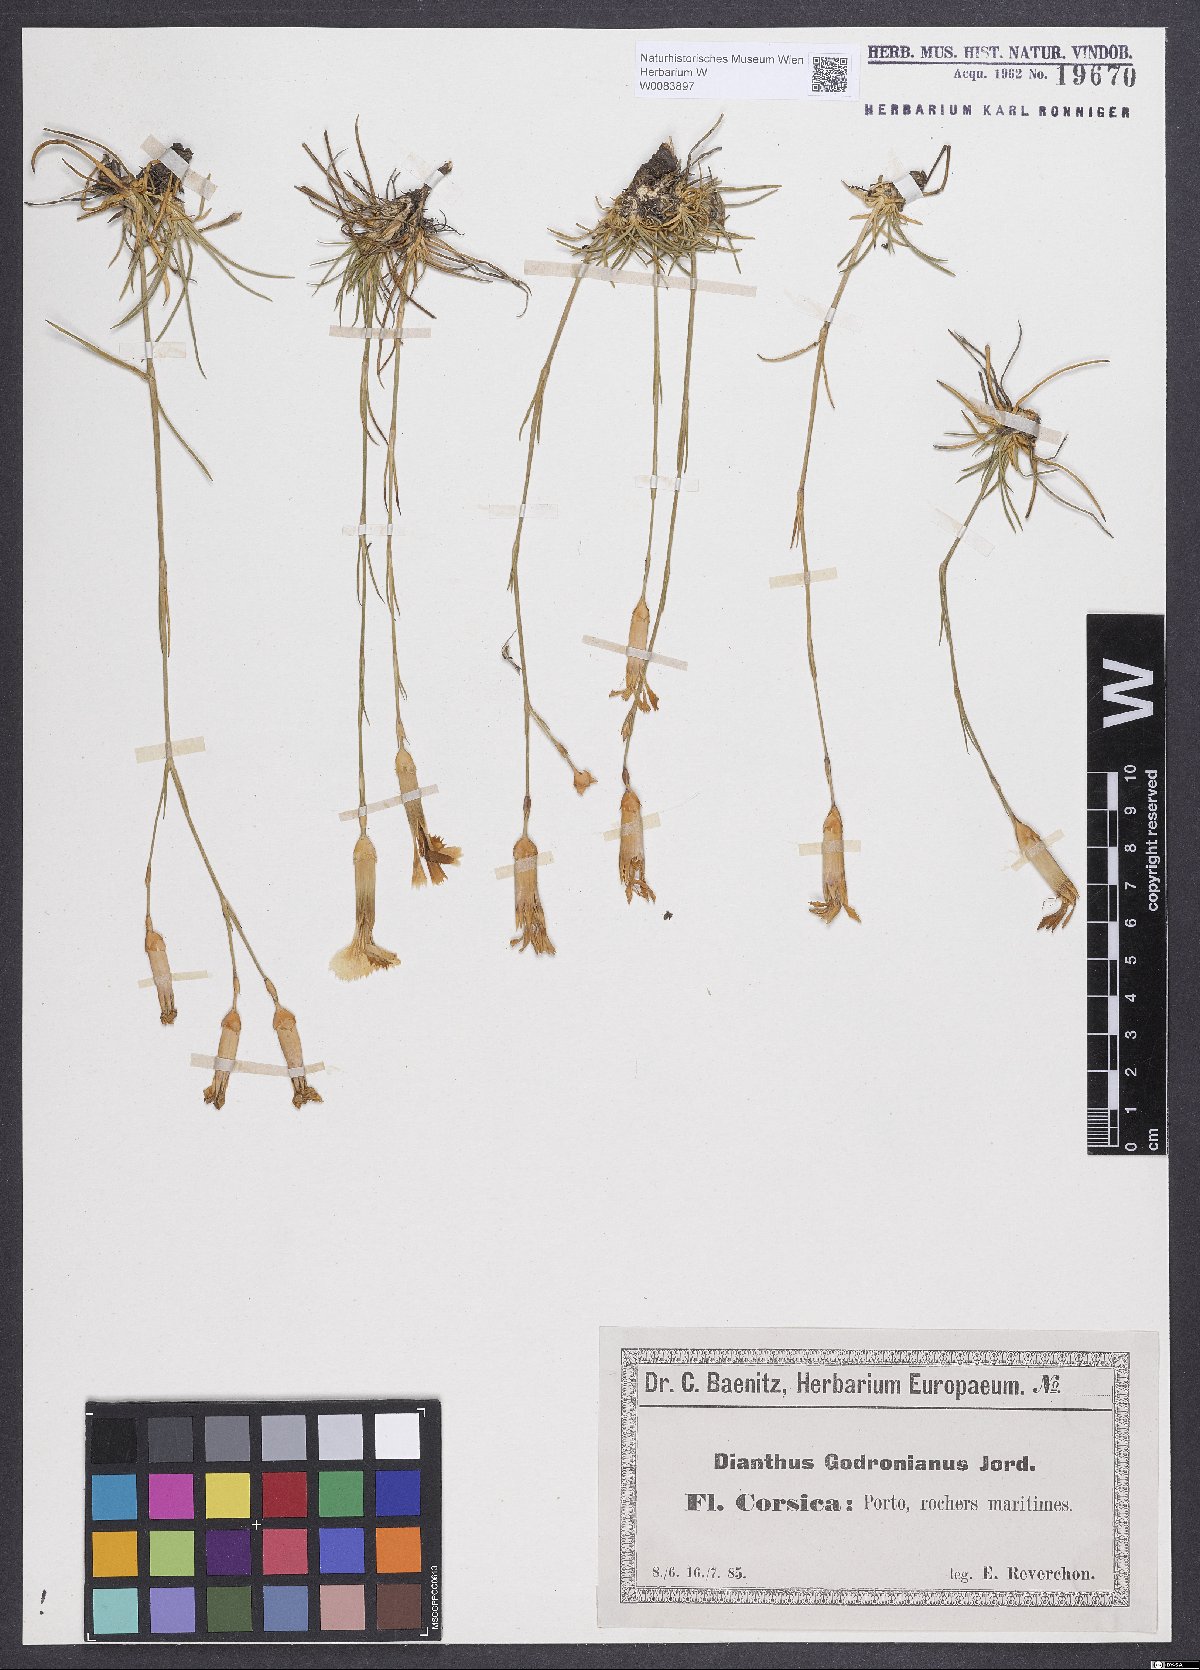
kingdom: Plantae
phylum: Tracheophyta
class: Magnoliopsida
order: Caryophyllales
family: Caryophyllaceae
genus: Dianthus
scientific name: Dianthus virgineus
